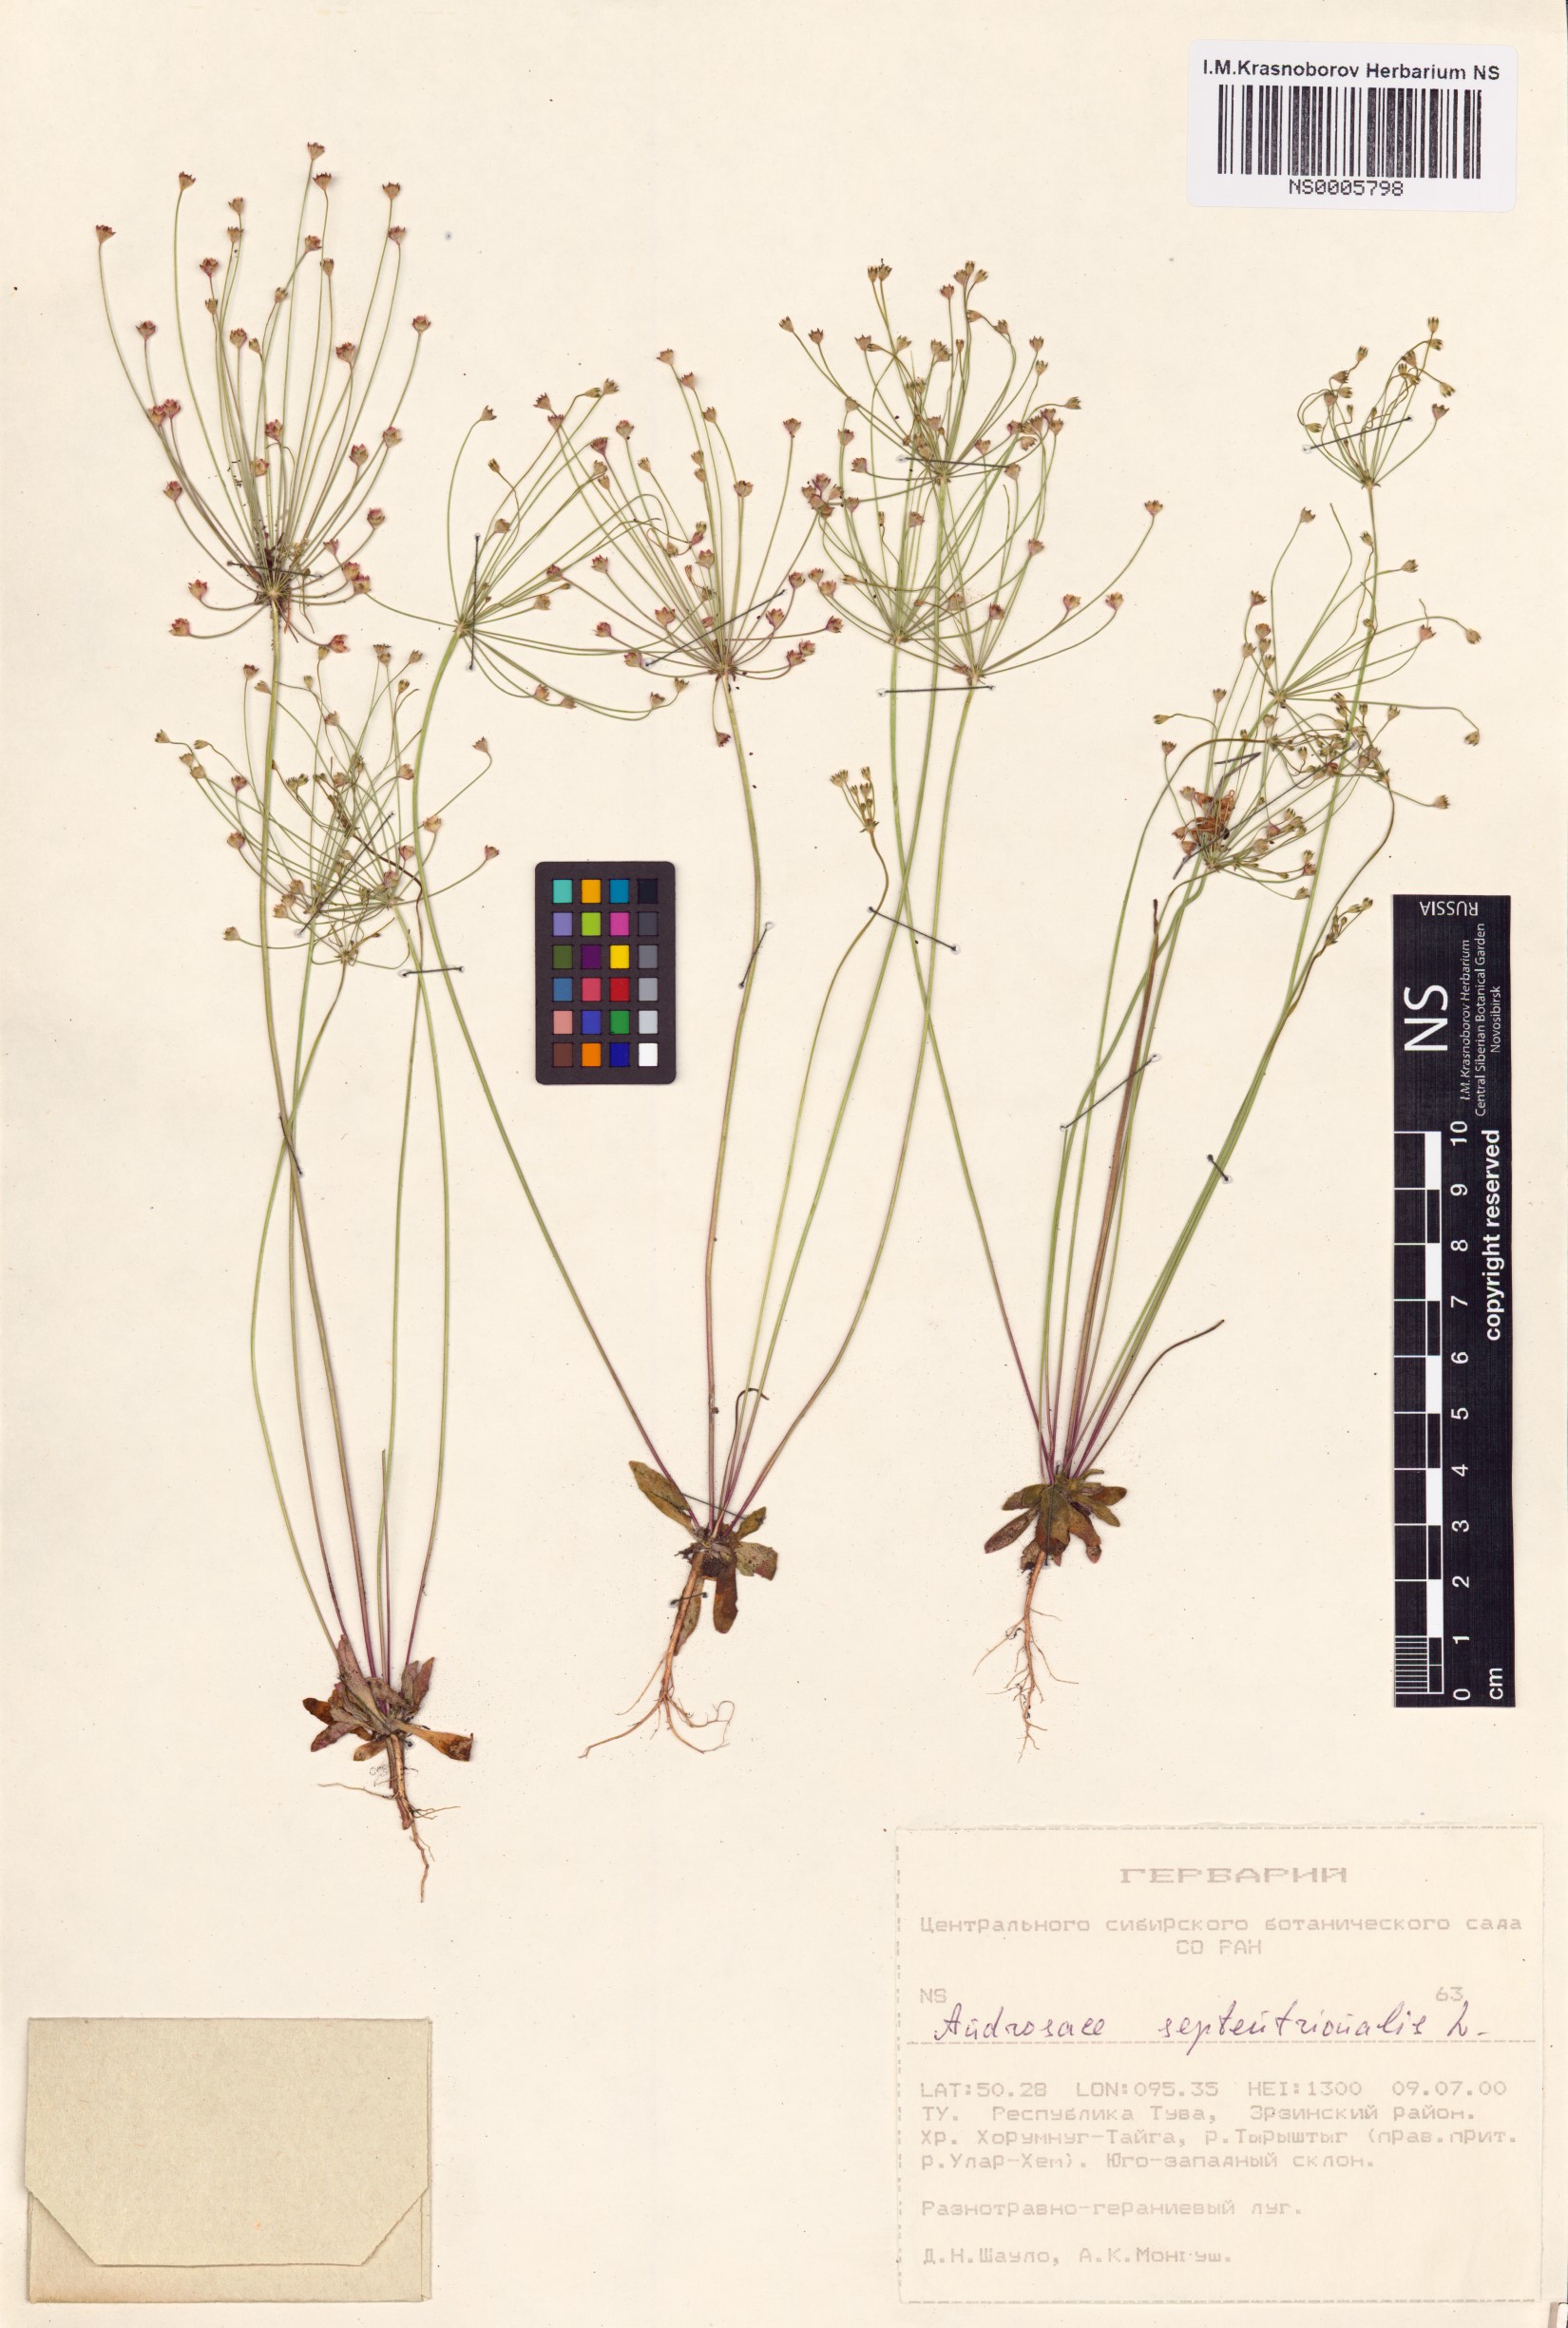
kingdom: Plantae
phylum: Tracheophyta
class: Magnoliopsida
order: Ericales
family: Primulaceae
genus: Androsace
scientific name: Androsace septentrionalis
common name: Hairy northern fairy-candelabra
